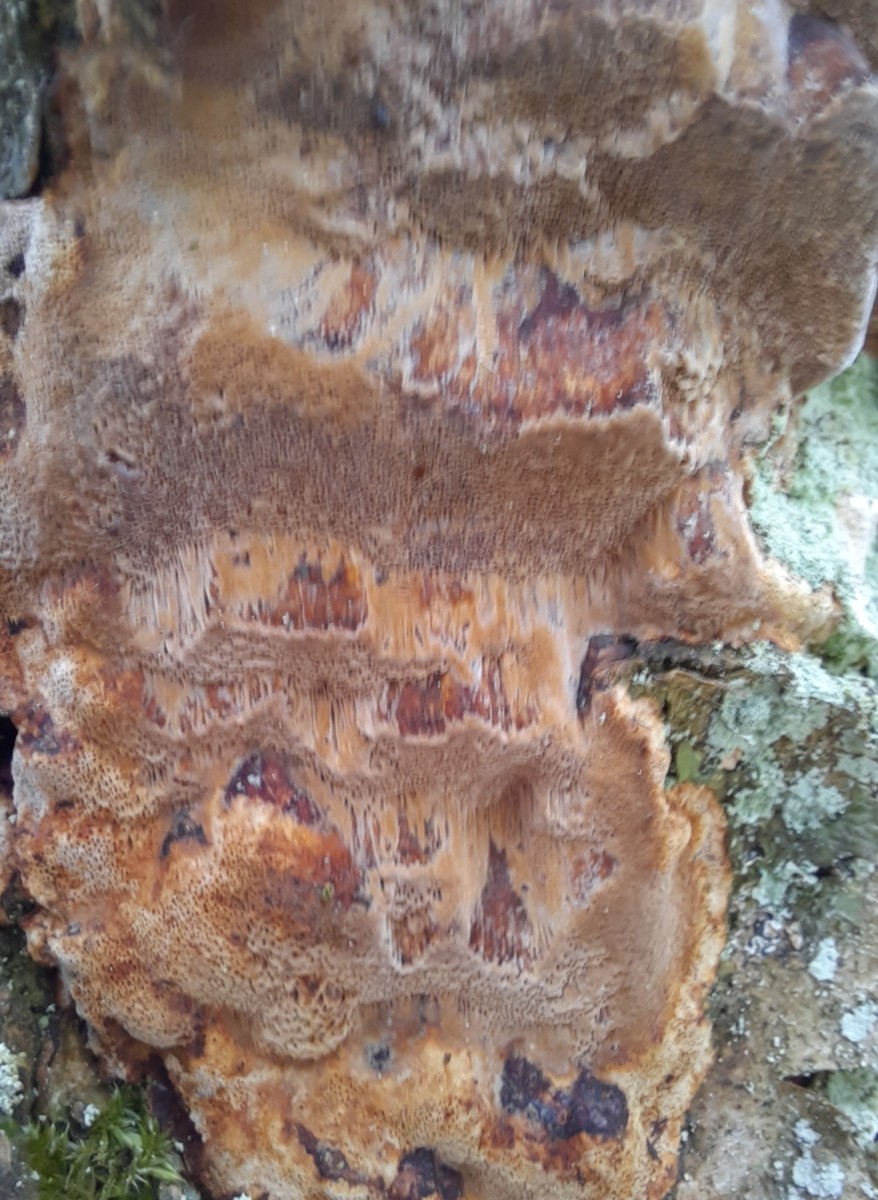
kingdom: Fungi
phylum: Basidiomycota
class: Agaricomycetes
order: Hymenochaetales
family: Hymenochaetaceae
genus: Fuscoporia
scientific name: Fuscoporia ferrea
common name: skorpe-ildporesvamp
